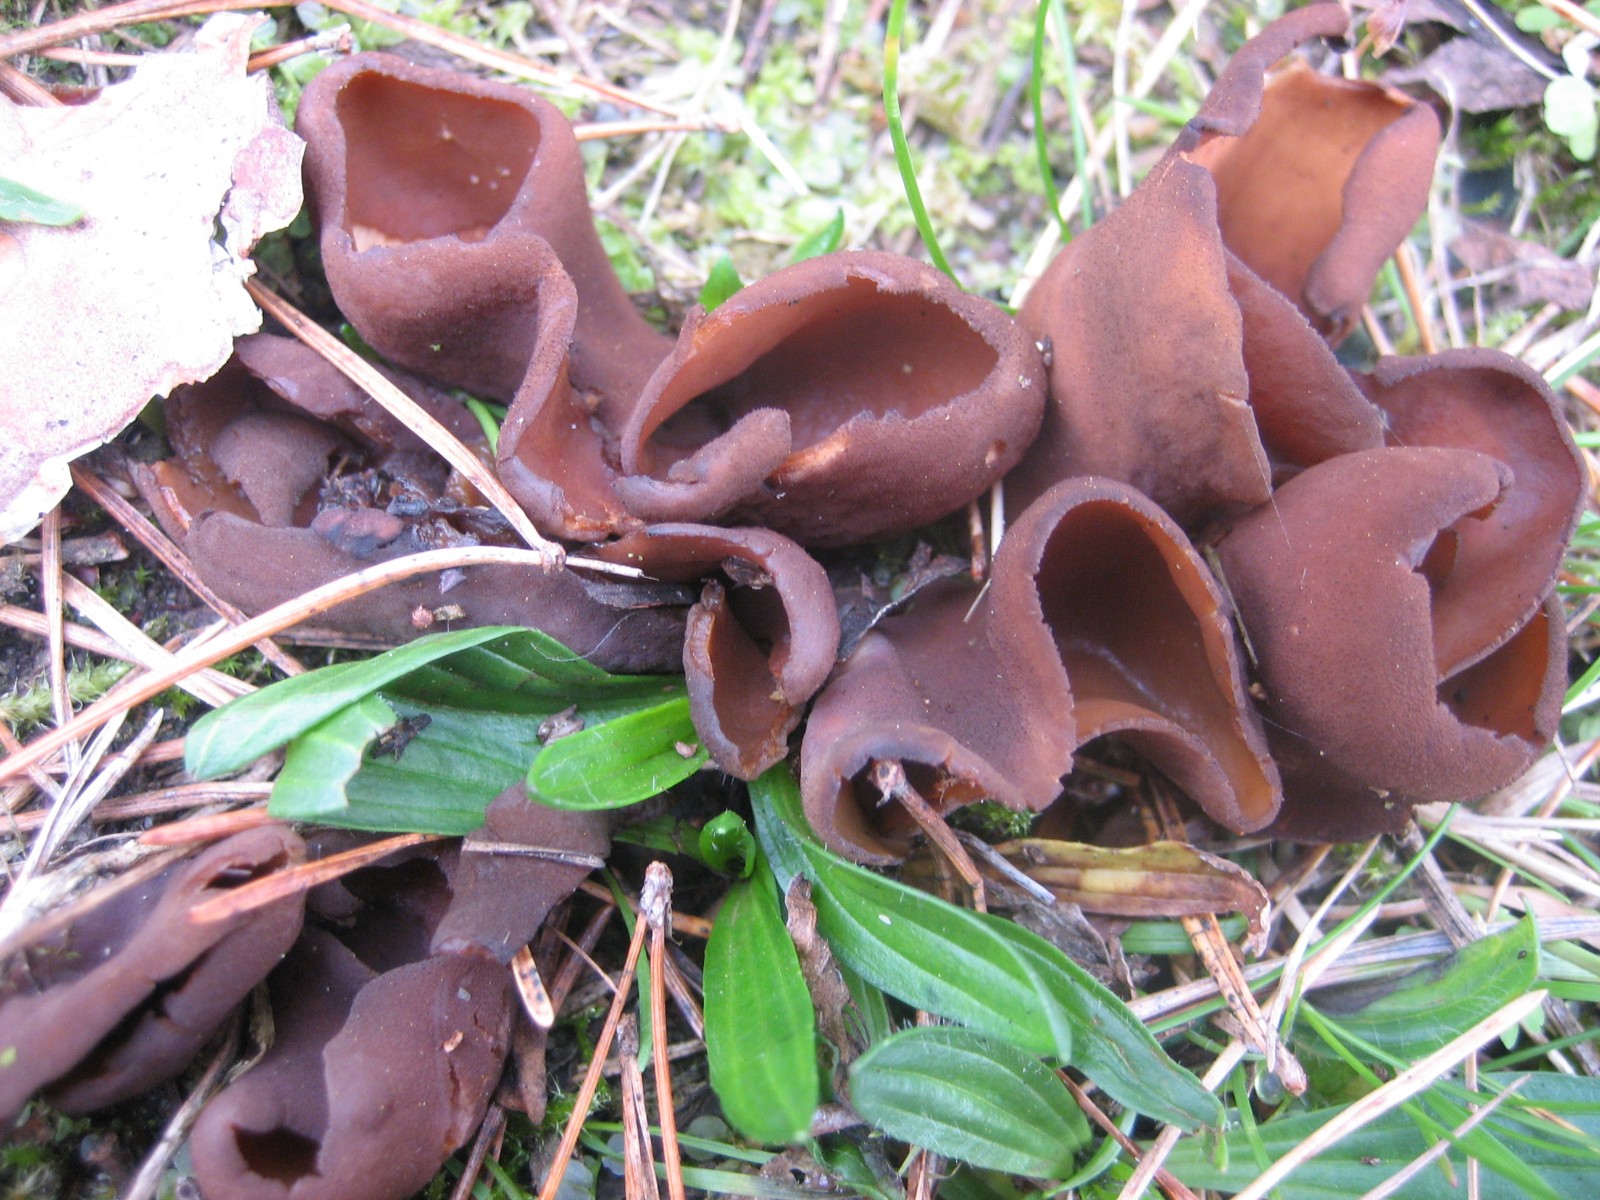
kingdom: Fungi
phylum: Ascomycota
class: Pezizomycetes
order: Pezizales
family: Otideaceae
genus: Otidea
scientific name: Otidea bufonia
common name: brun ørebæger
